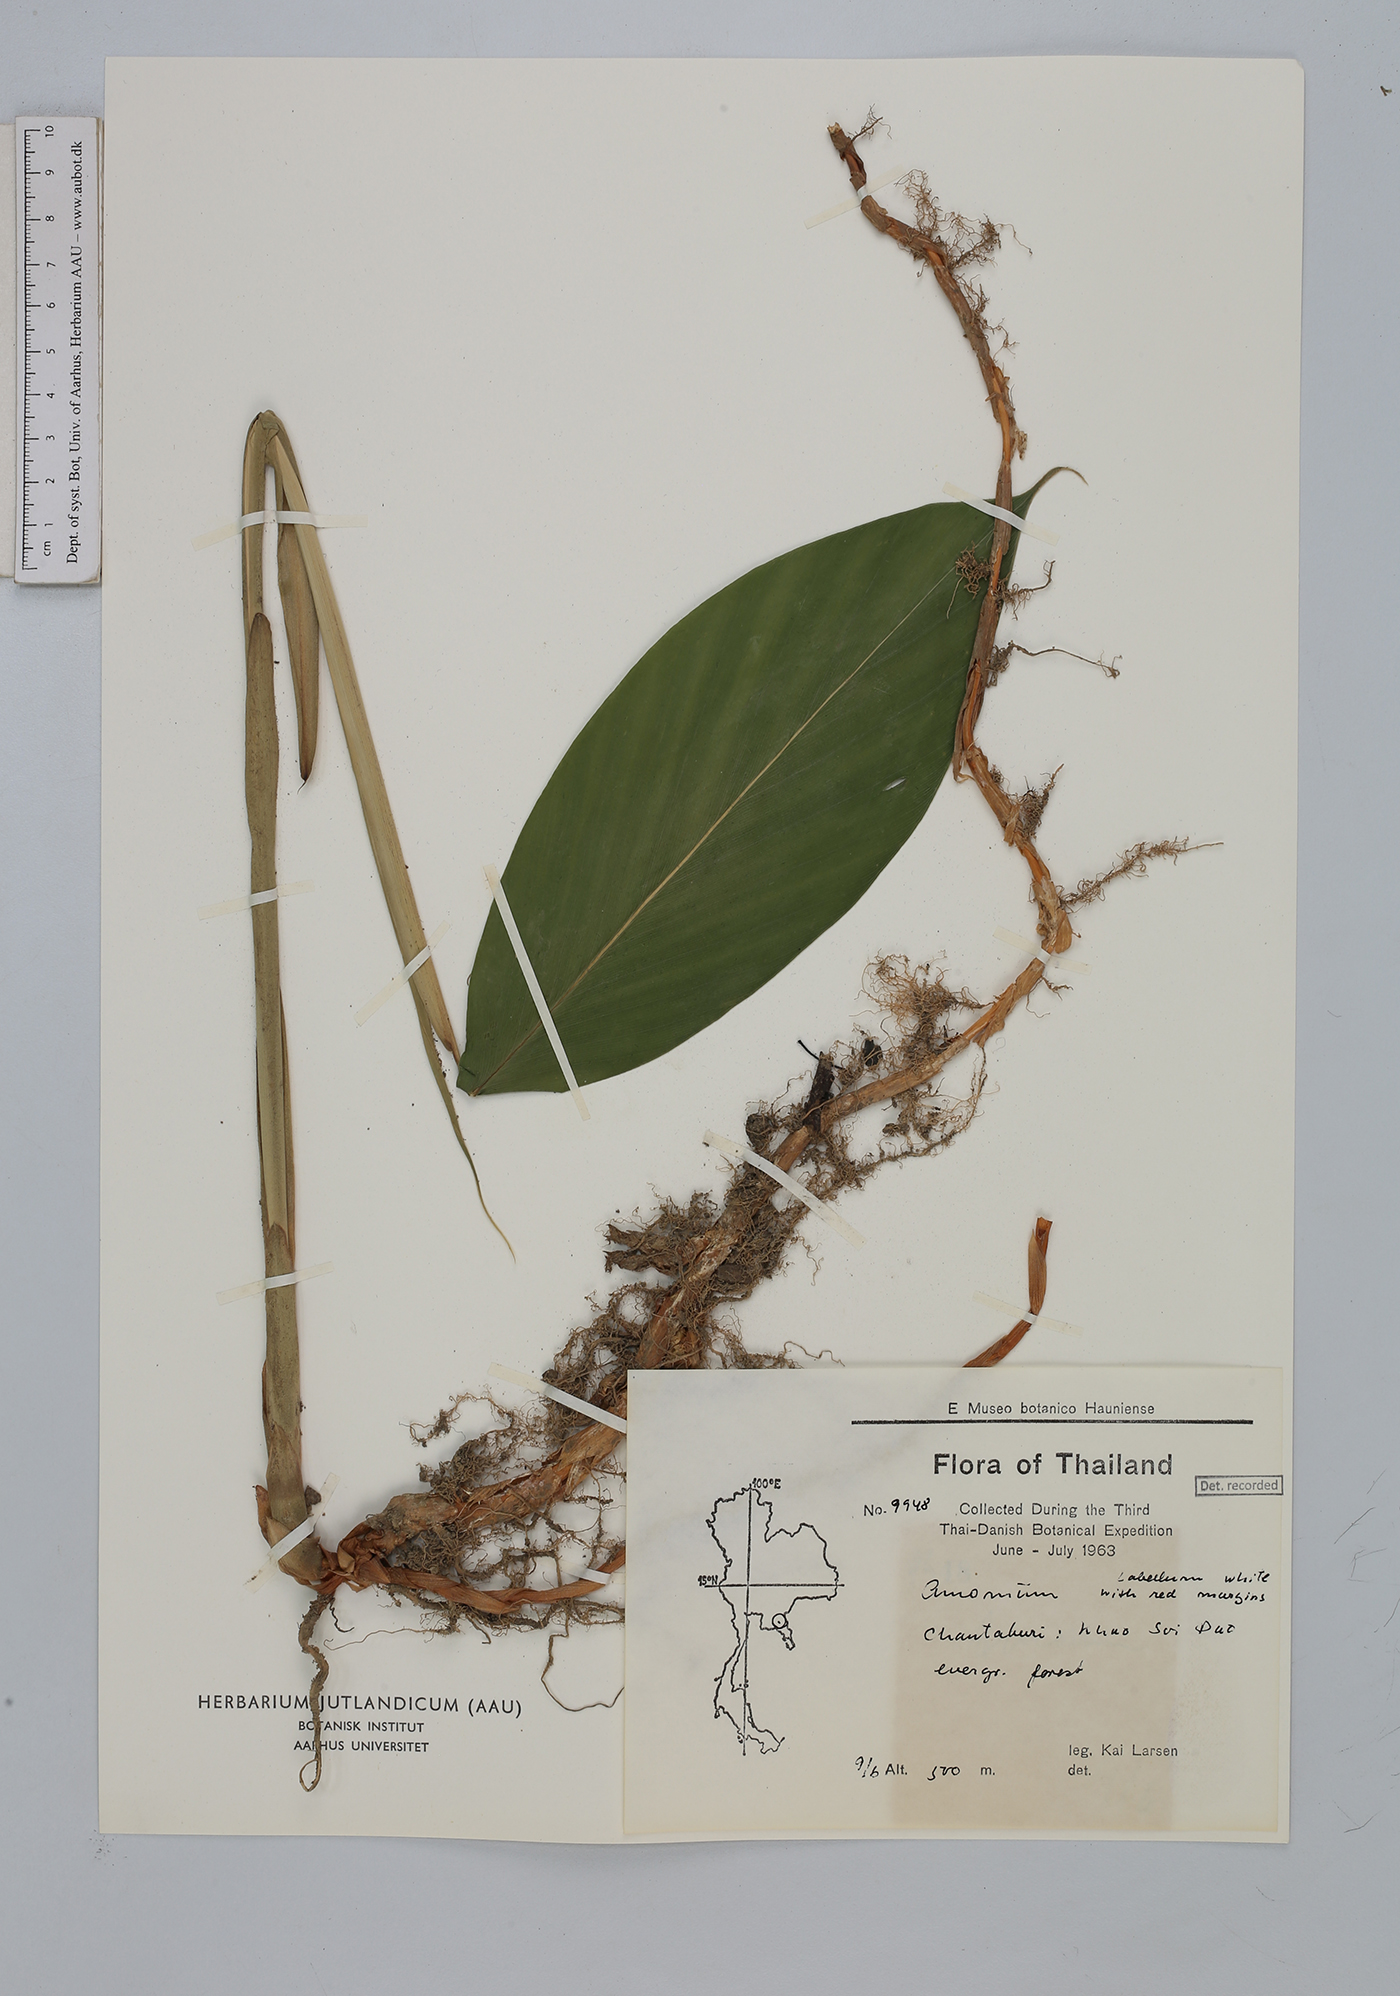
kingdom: Plantae
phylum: Tracheophyta
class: Liliopsida
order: Zingiberales
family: Zingiberaceae
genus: Amomum
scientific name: Amomum
